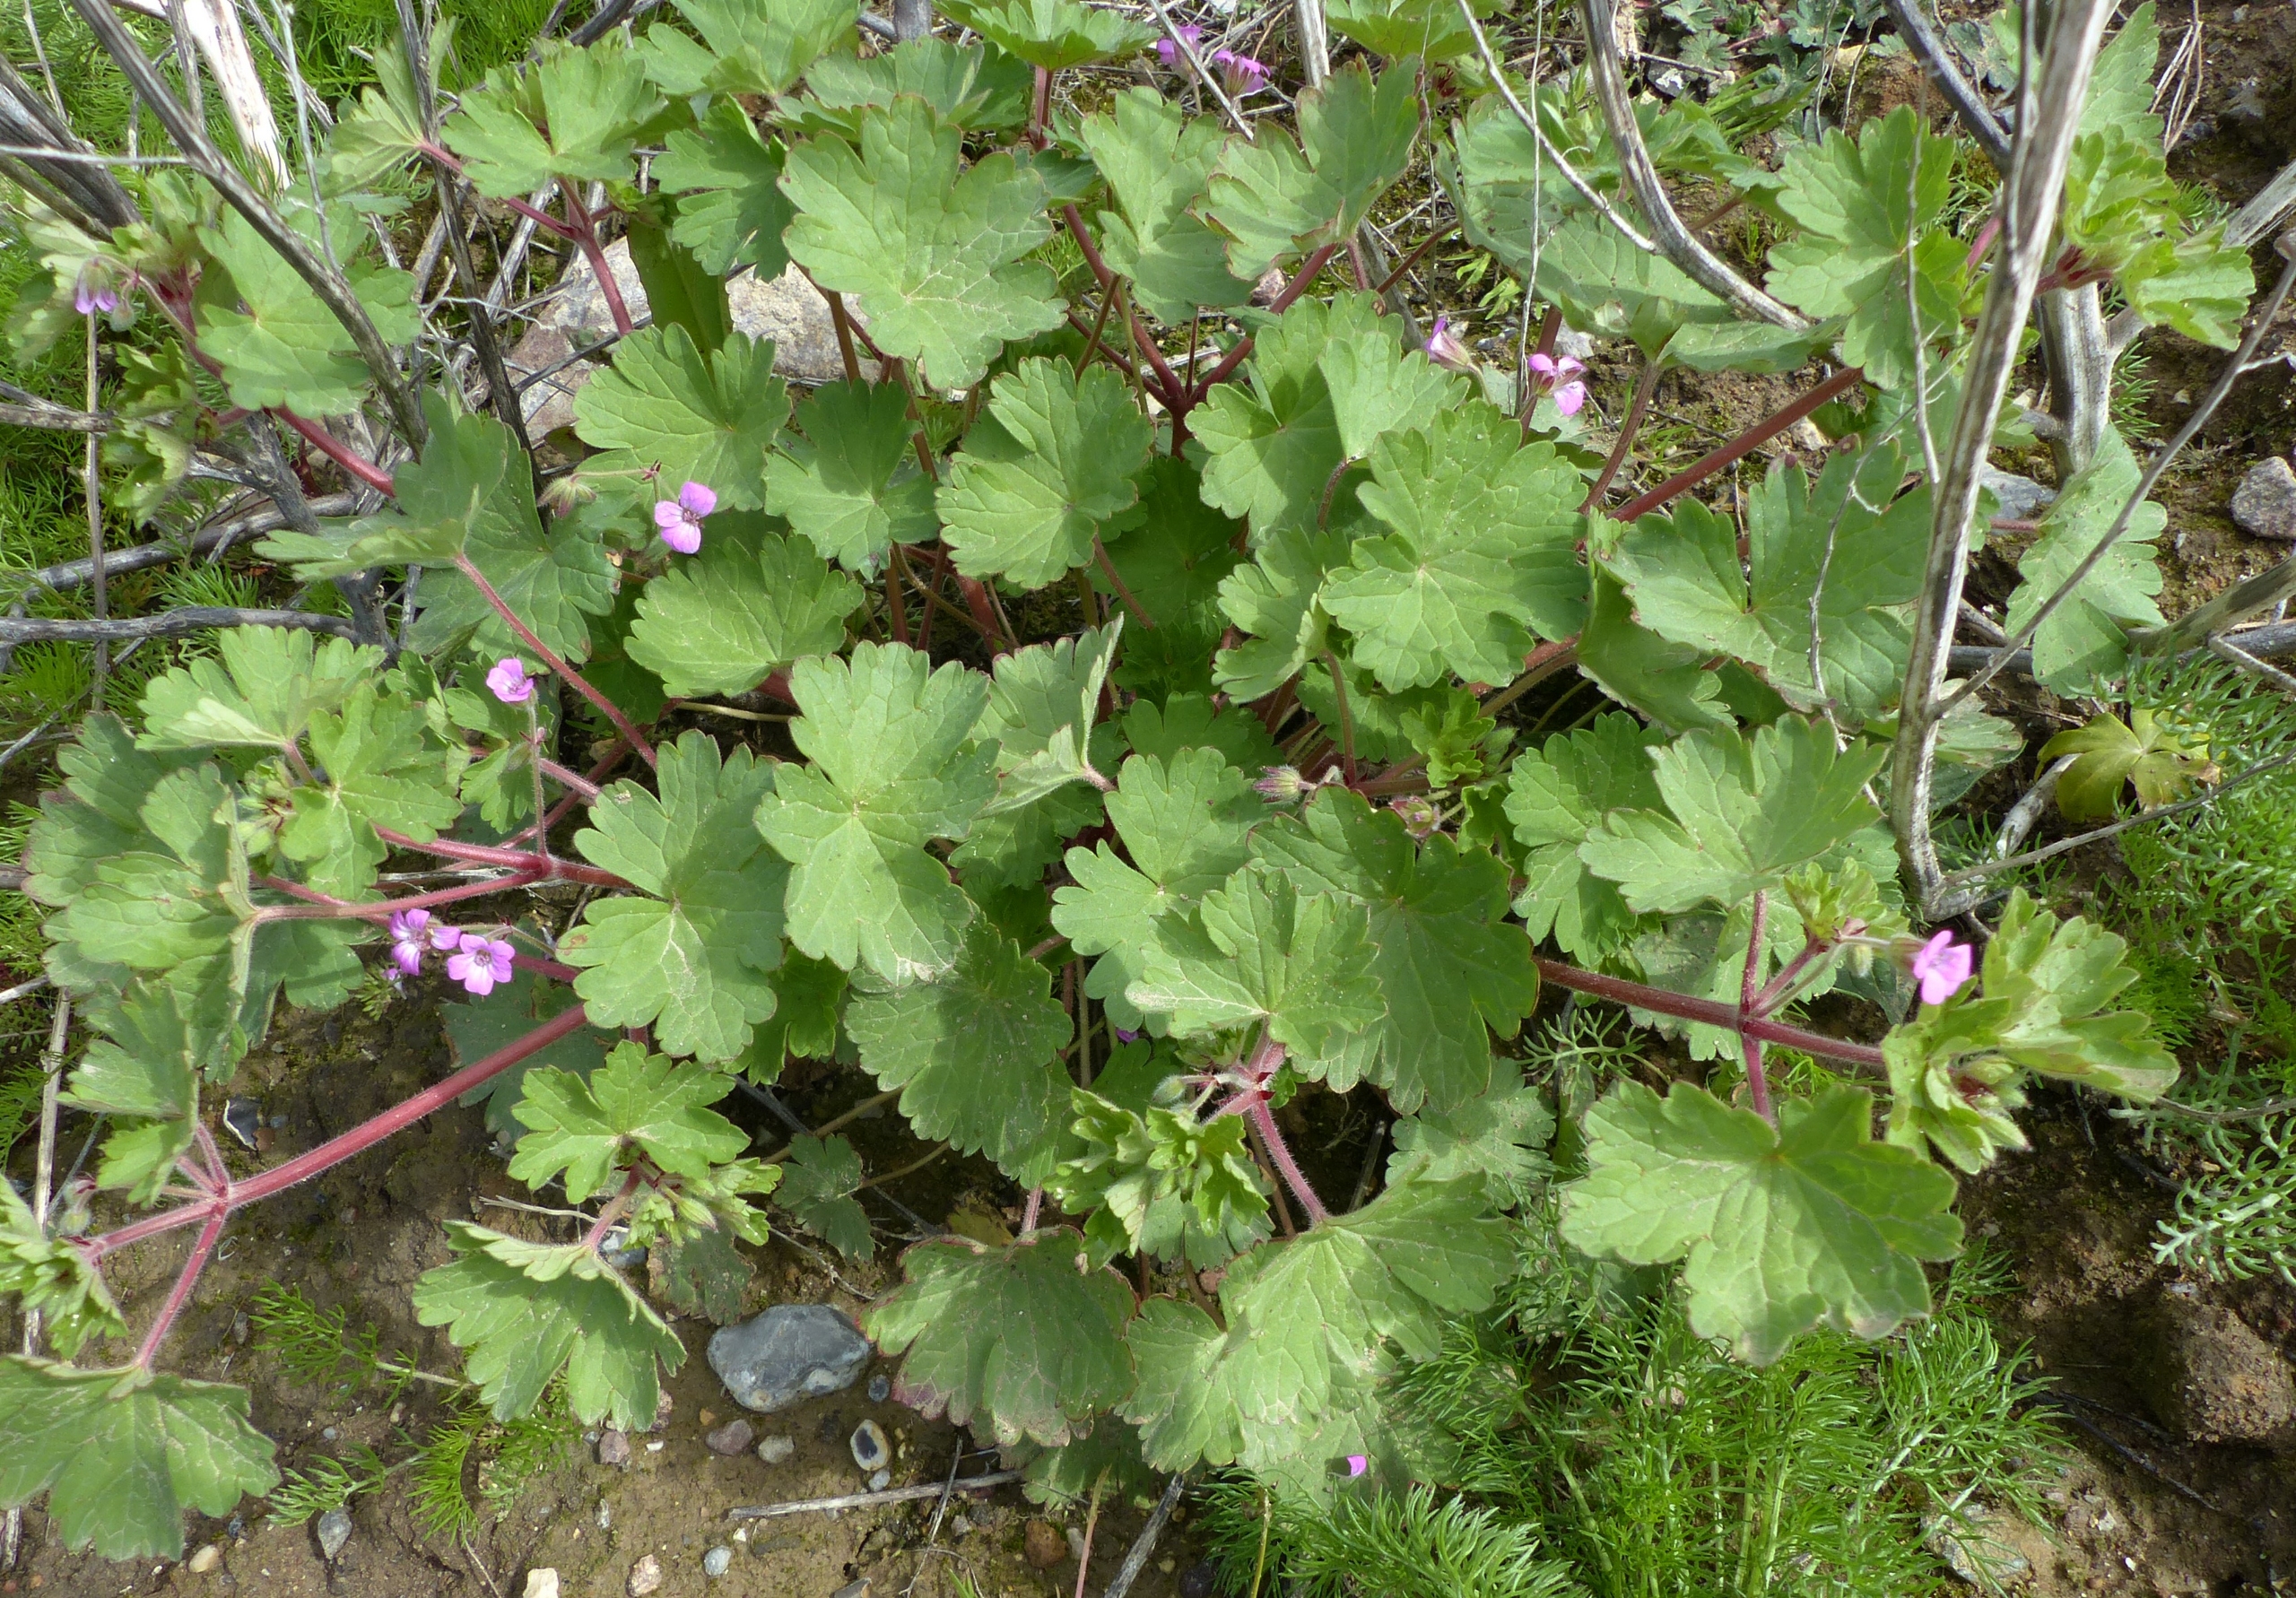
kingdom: Plantae
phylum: Tracheophyta
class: Magnoliopsida
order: Geraniales
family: Geraniaceae
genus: Geranium
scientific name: Geranium rotundifolium
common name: Rundbladet storkenæb
